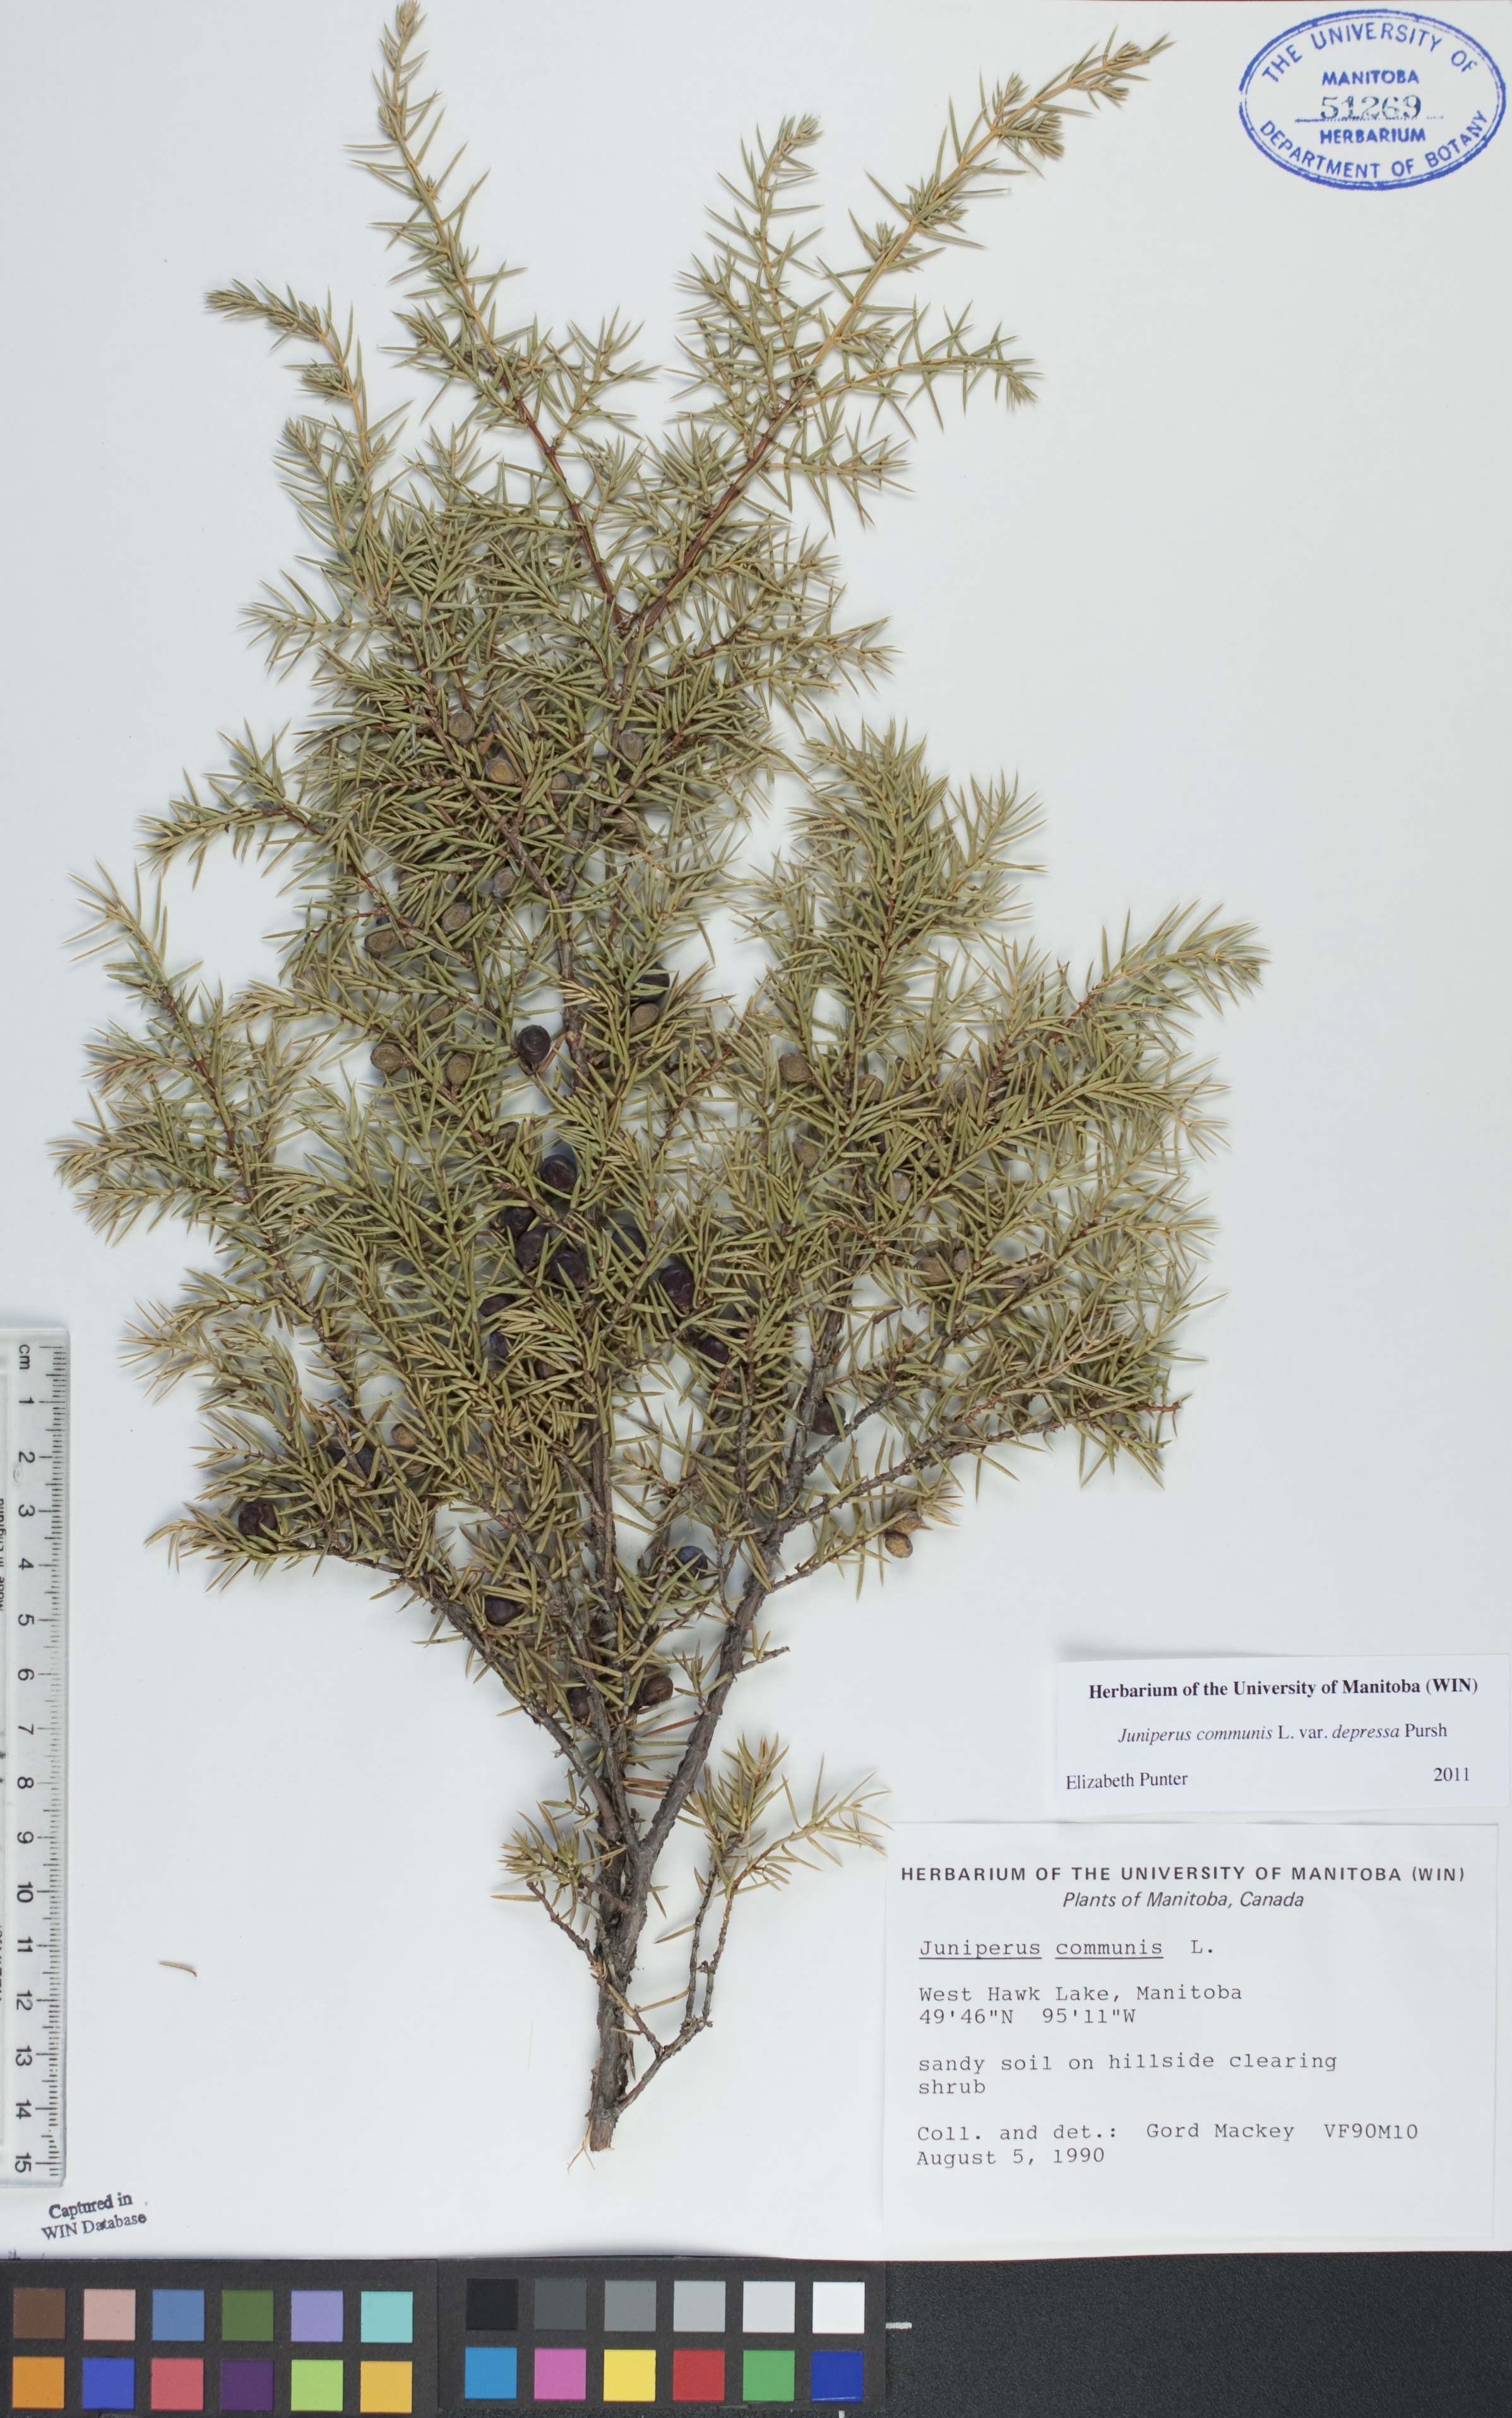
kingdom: Plantae
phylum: Tracheophyta
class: Pinopsida
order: Pinales
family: Cupressaceae
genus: Juniperus
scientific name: Juniperus communis
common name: Common juniper
